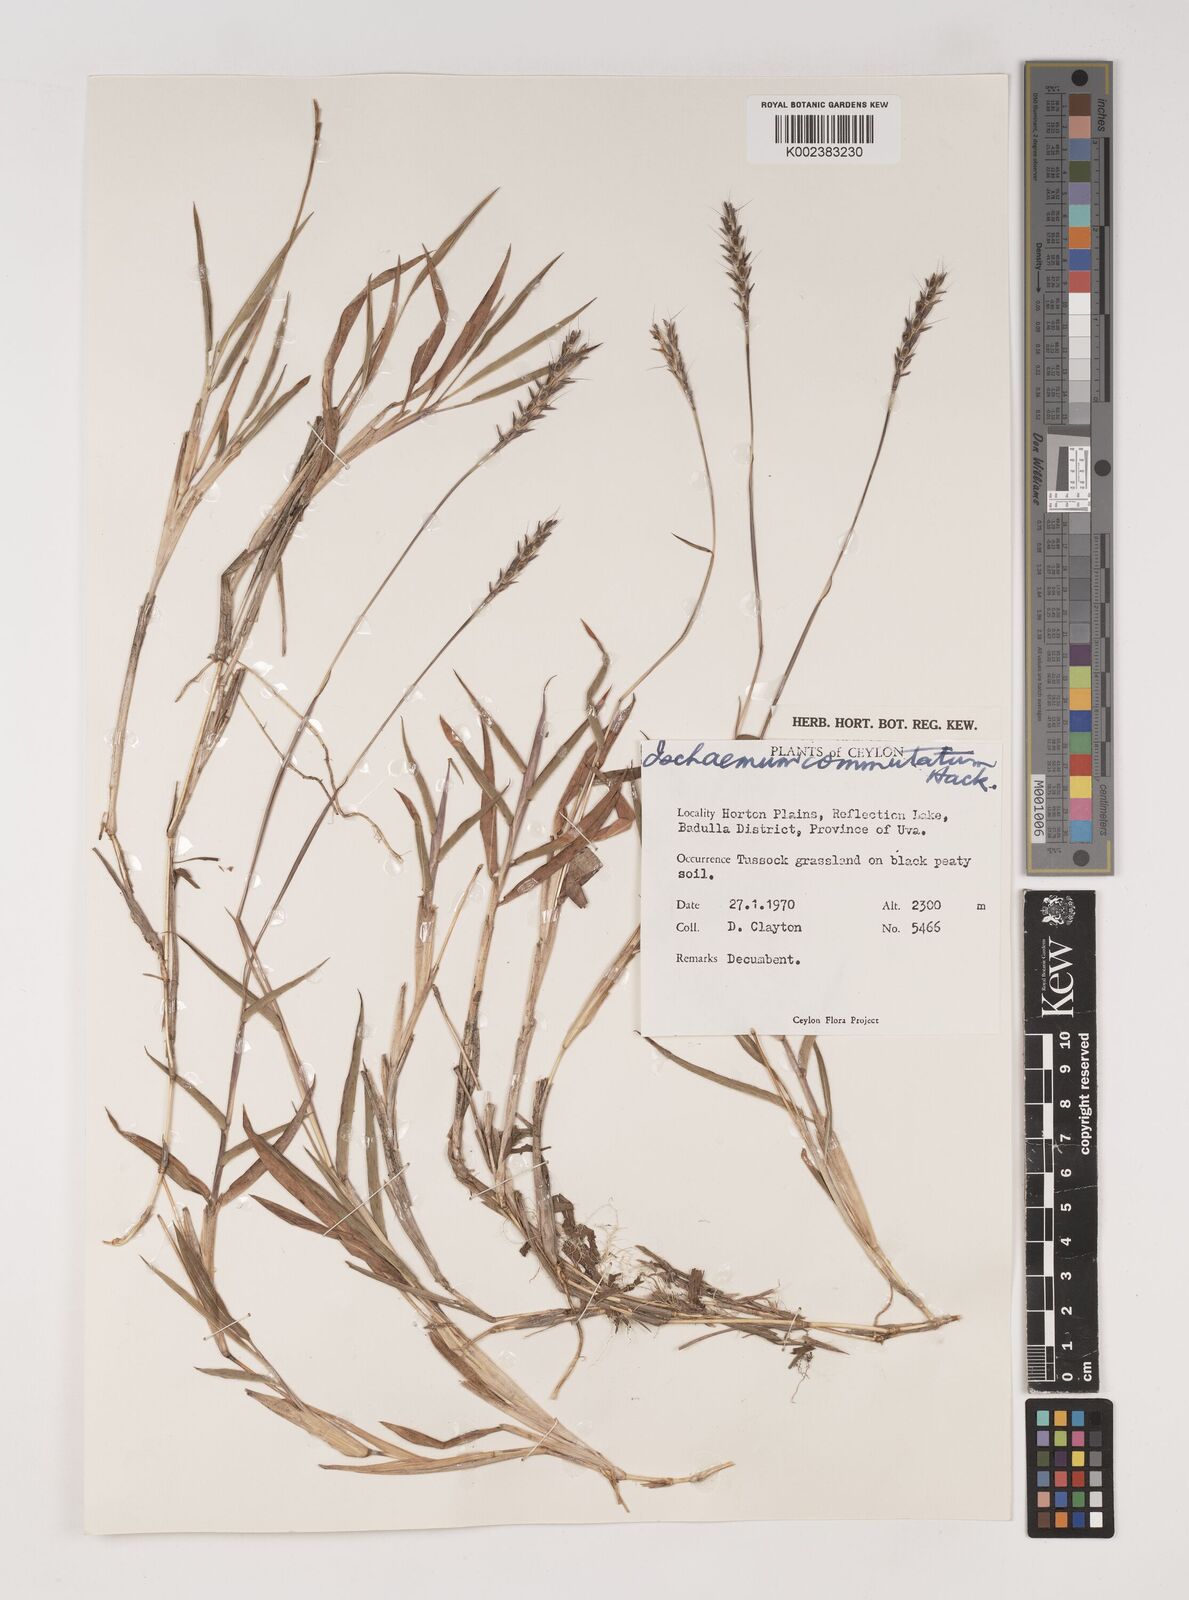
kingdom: Plantae
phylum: Tracheophyta
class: Liliopsida
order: Poales
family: Poaceae
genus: Ischaemum
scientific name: Ischaemum commutatum
